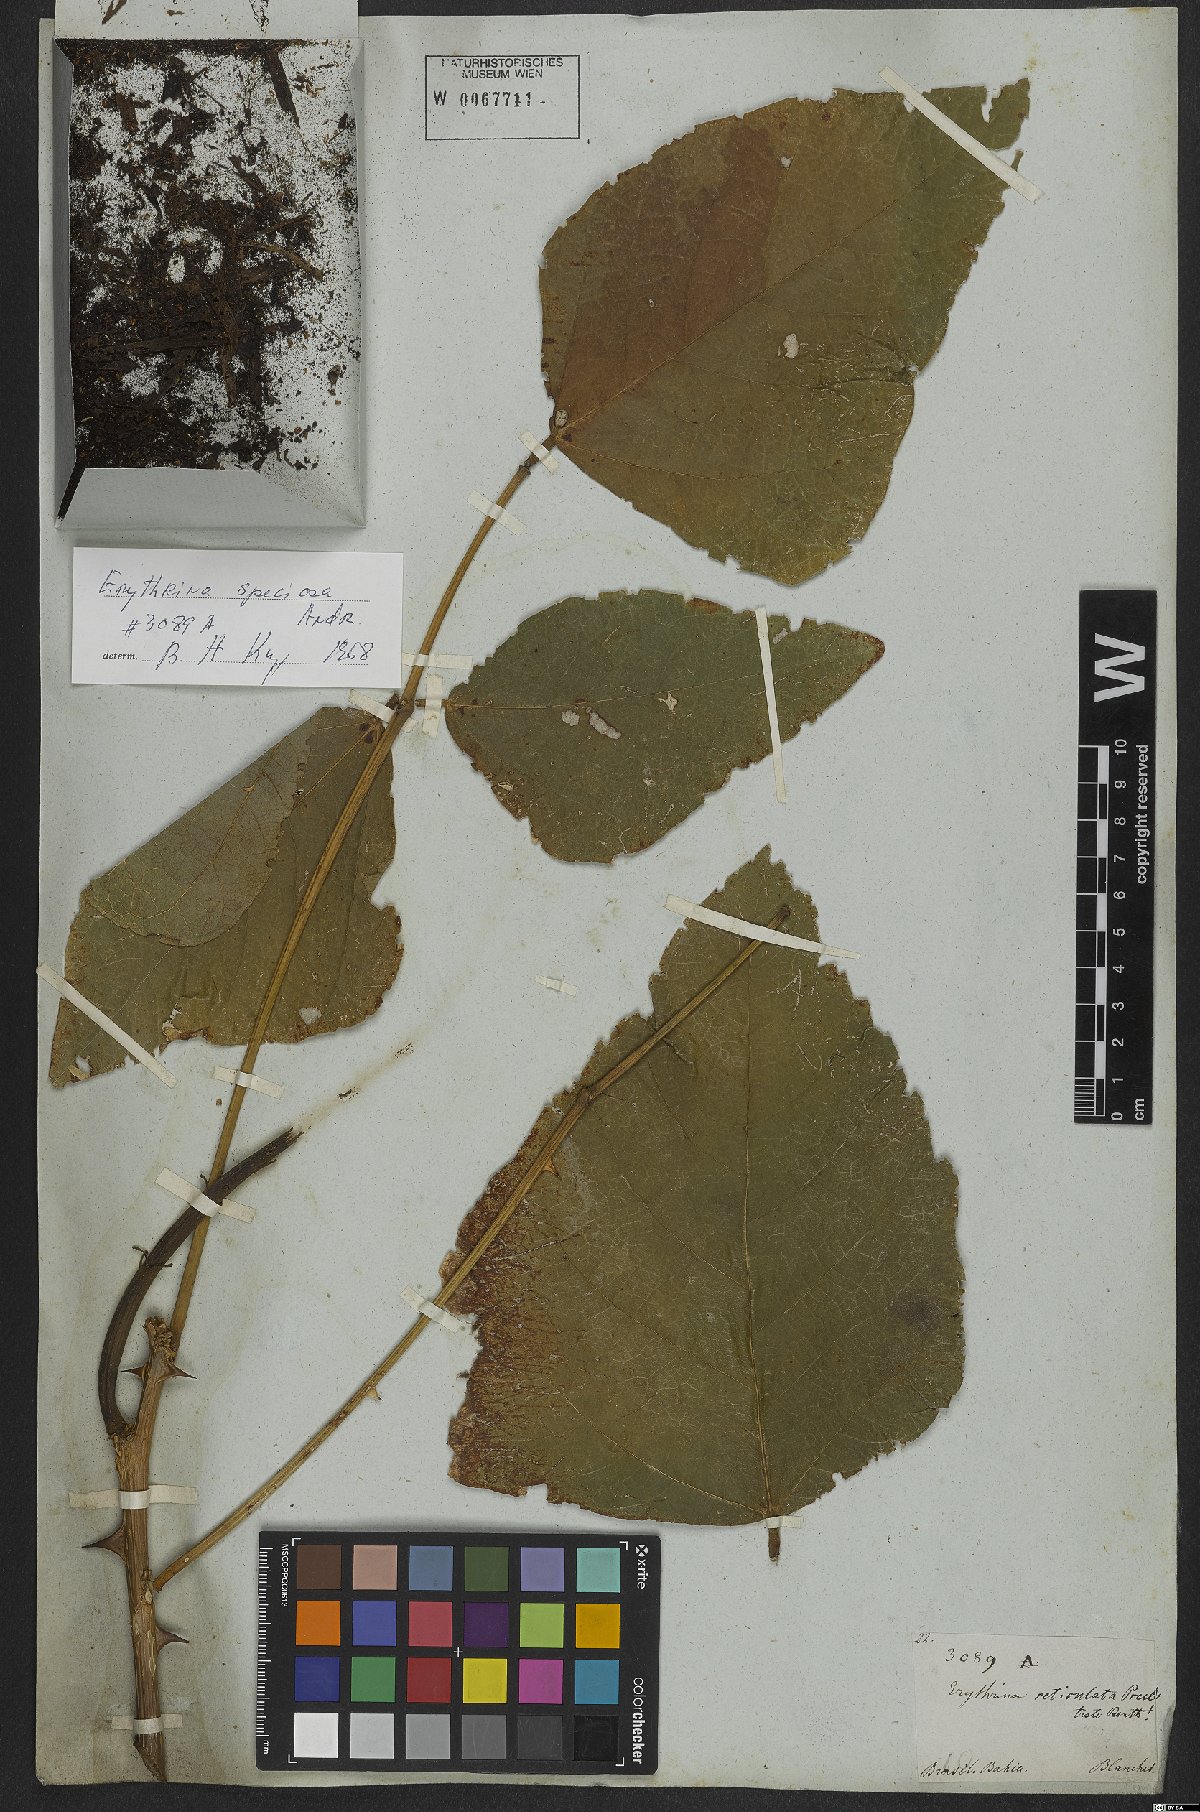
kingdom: Plantae
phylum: Tracheophyta
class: Magnoliopsida
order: Fabales
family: Fabaceae
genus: Erythrina
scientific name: Erythrina speciosa
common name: Coral tree
